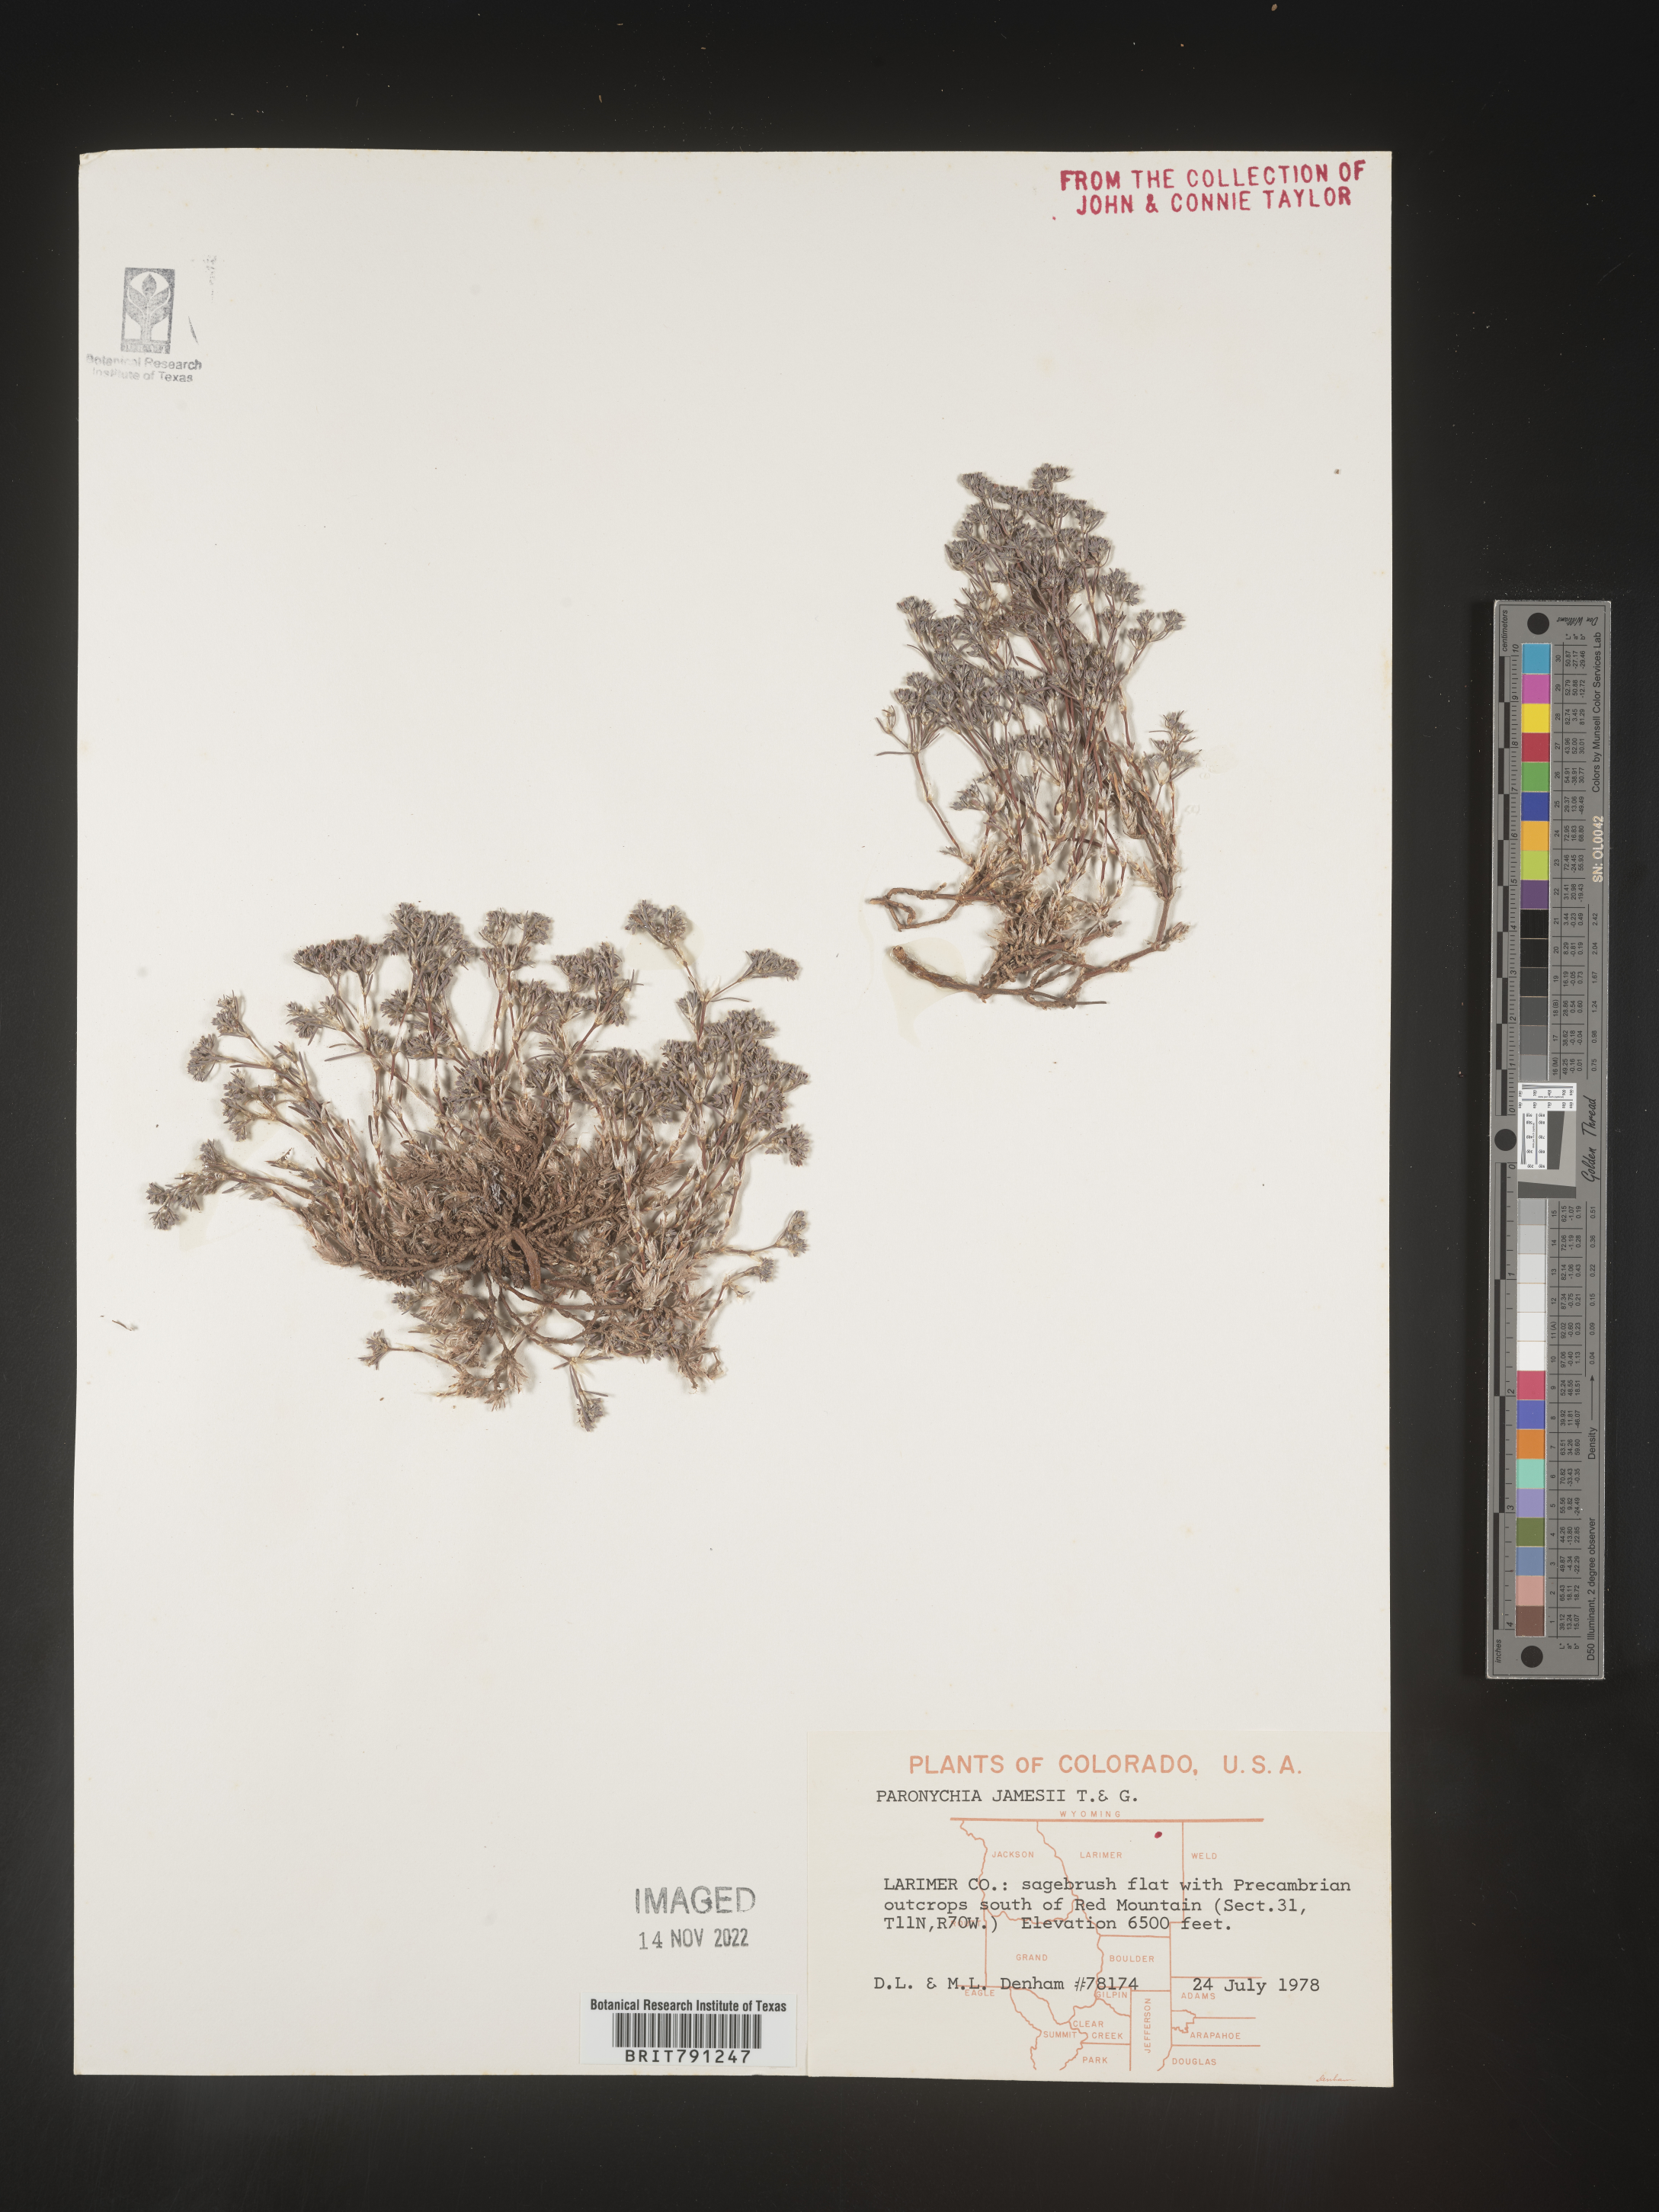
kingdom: Plantae
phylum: Tracheophyta
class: Magnoliopsida
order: Caryophyllales
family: Caryophyllaceae
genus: Paronychia
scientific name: Paronychia jamesii
